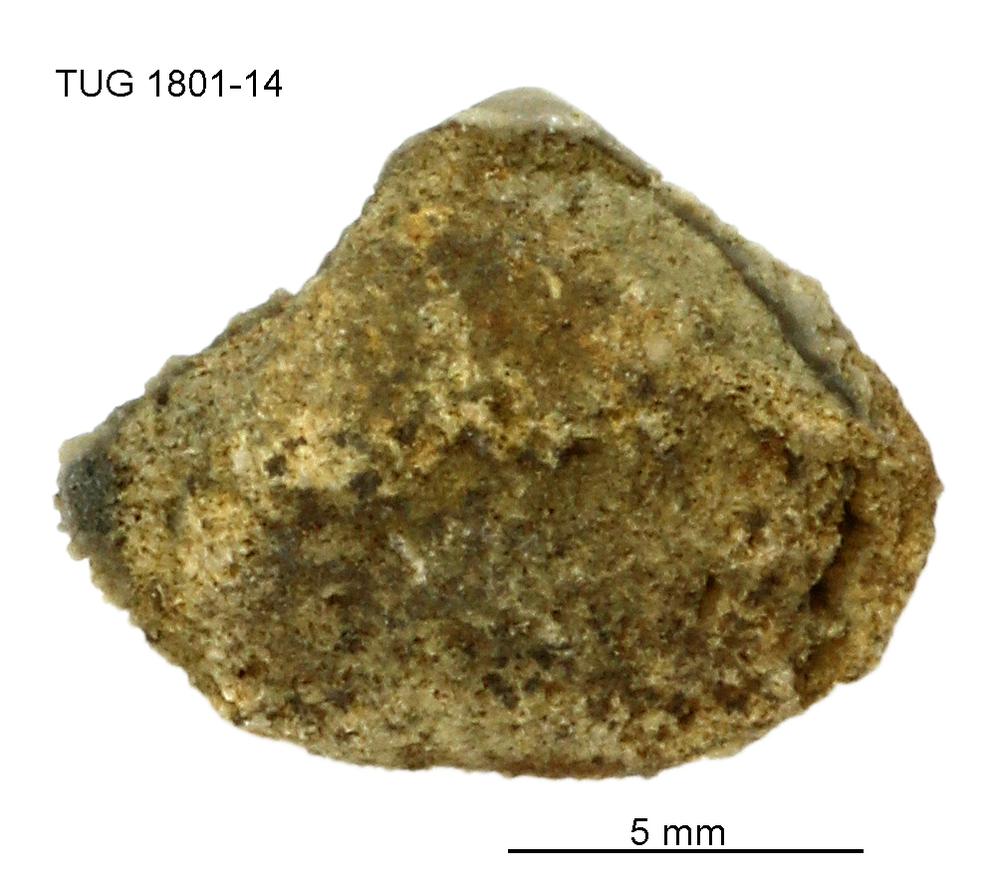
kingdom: Animalia
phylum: Brachiopoda
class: Craniata
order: Craniida
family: Craniidae
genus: Philhedra
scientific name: Philhedra
